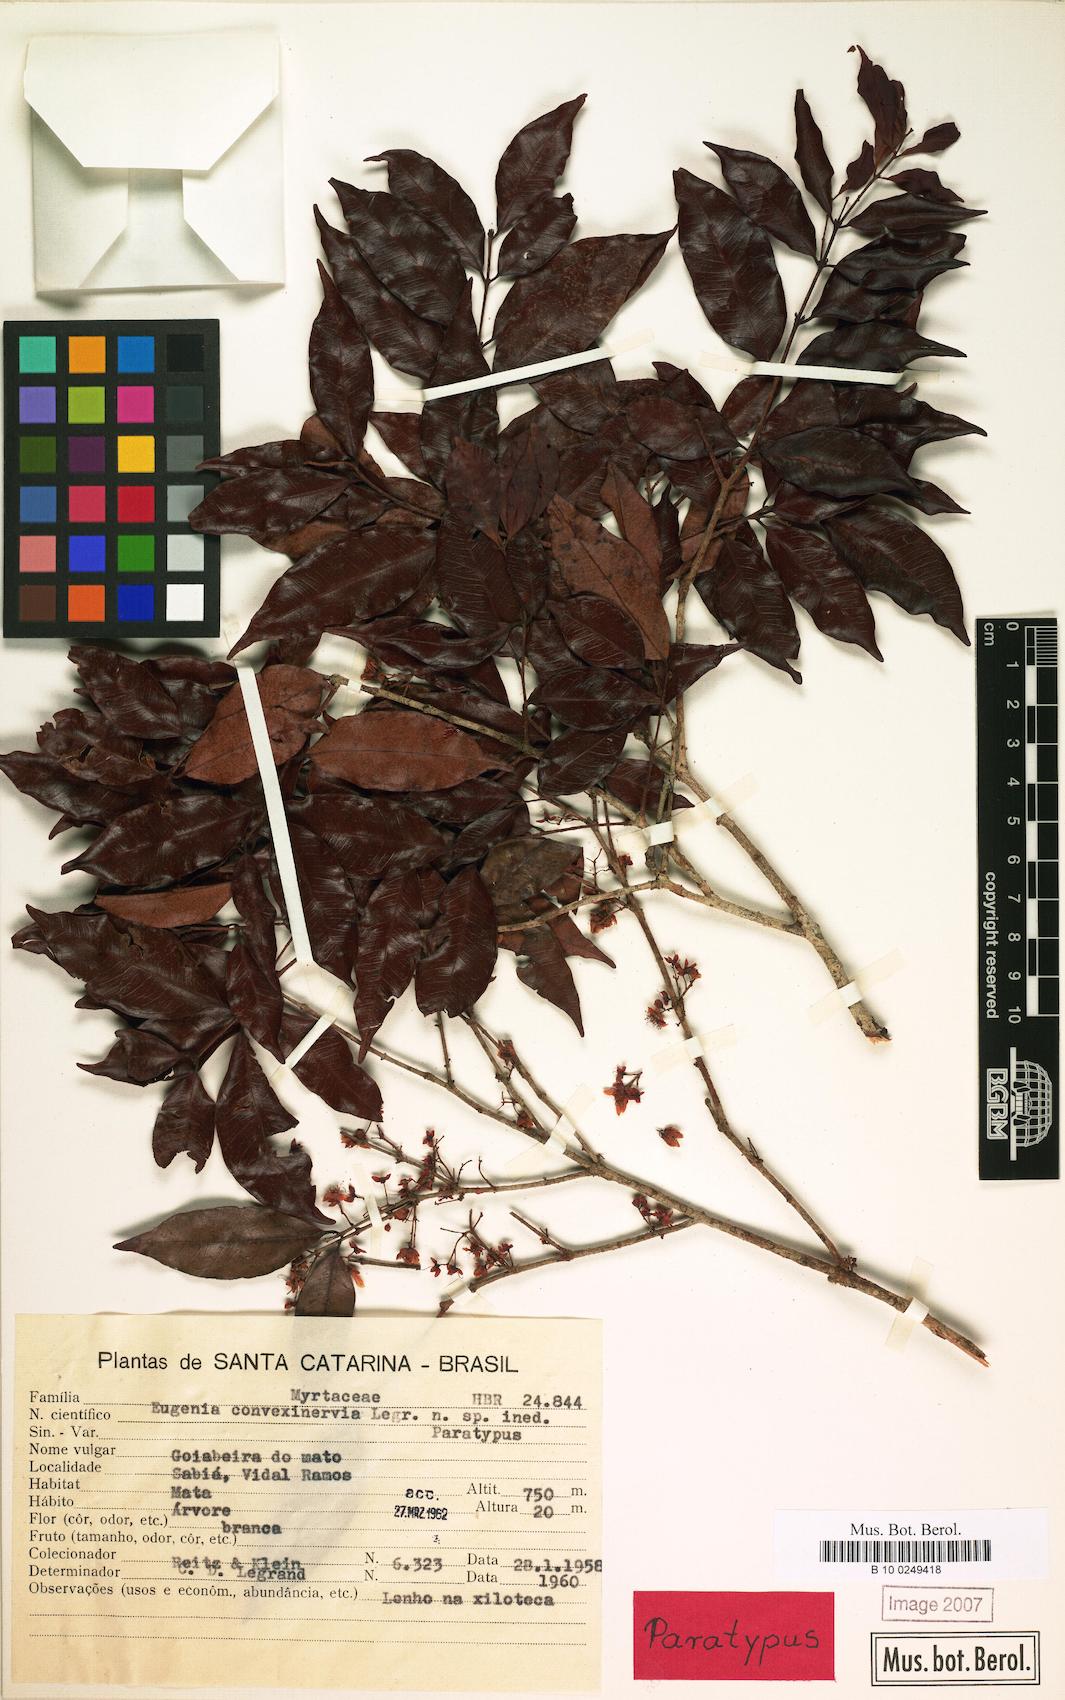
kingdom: Plantae
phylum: Tracheophyta
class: Magnoliopsida
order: Myrtales
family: Myrtaceae
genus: Eugenia
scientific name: Eugenia convexinervia
